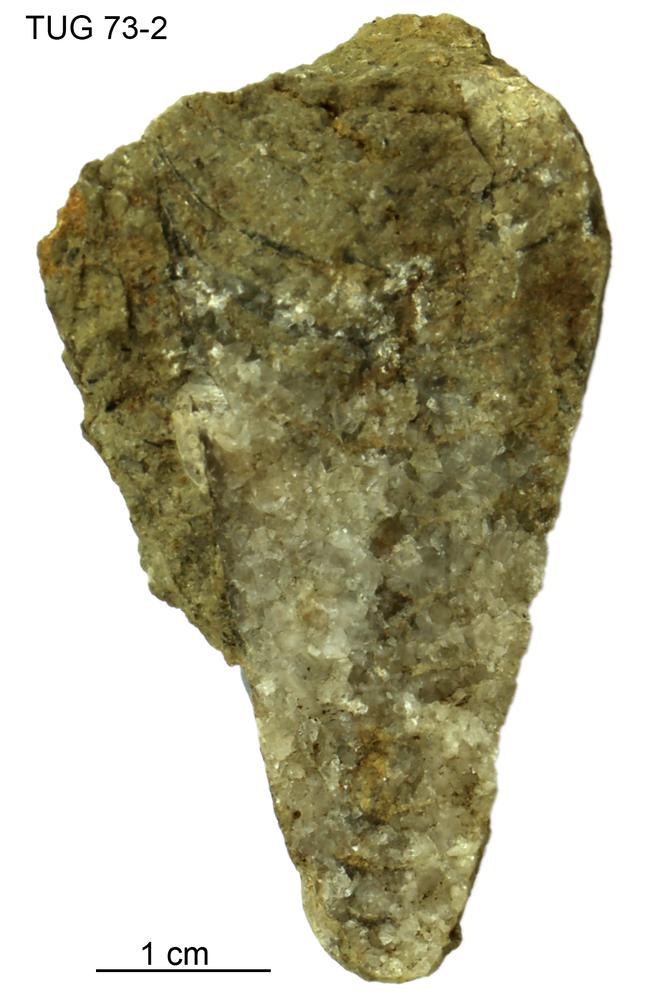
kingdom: Animalia
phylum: Mollusca
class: Cephalopoda
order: Orthocerida
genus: Ancistroceras
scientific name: Ancistroceras undulatum
